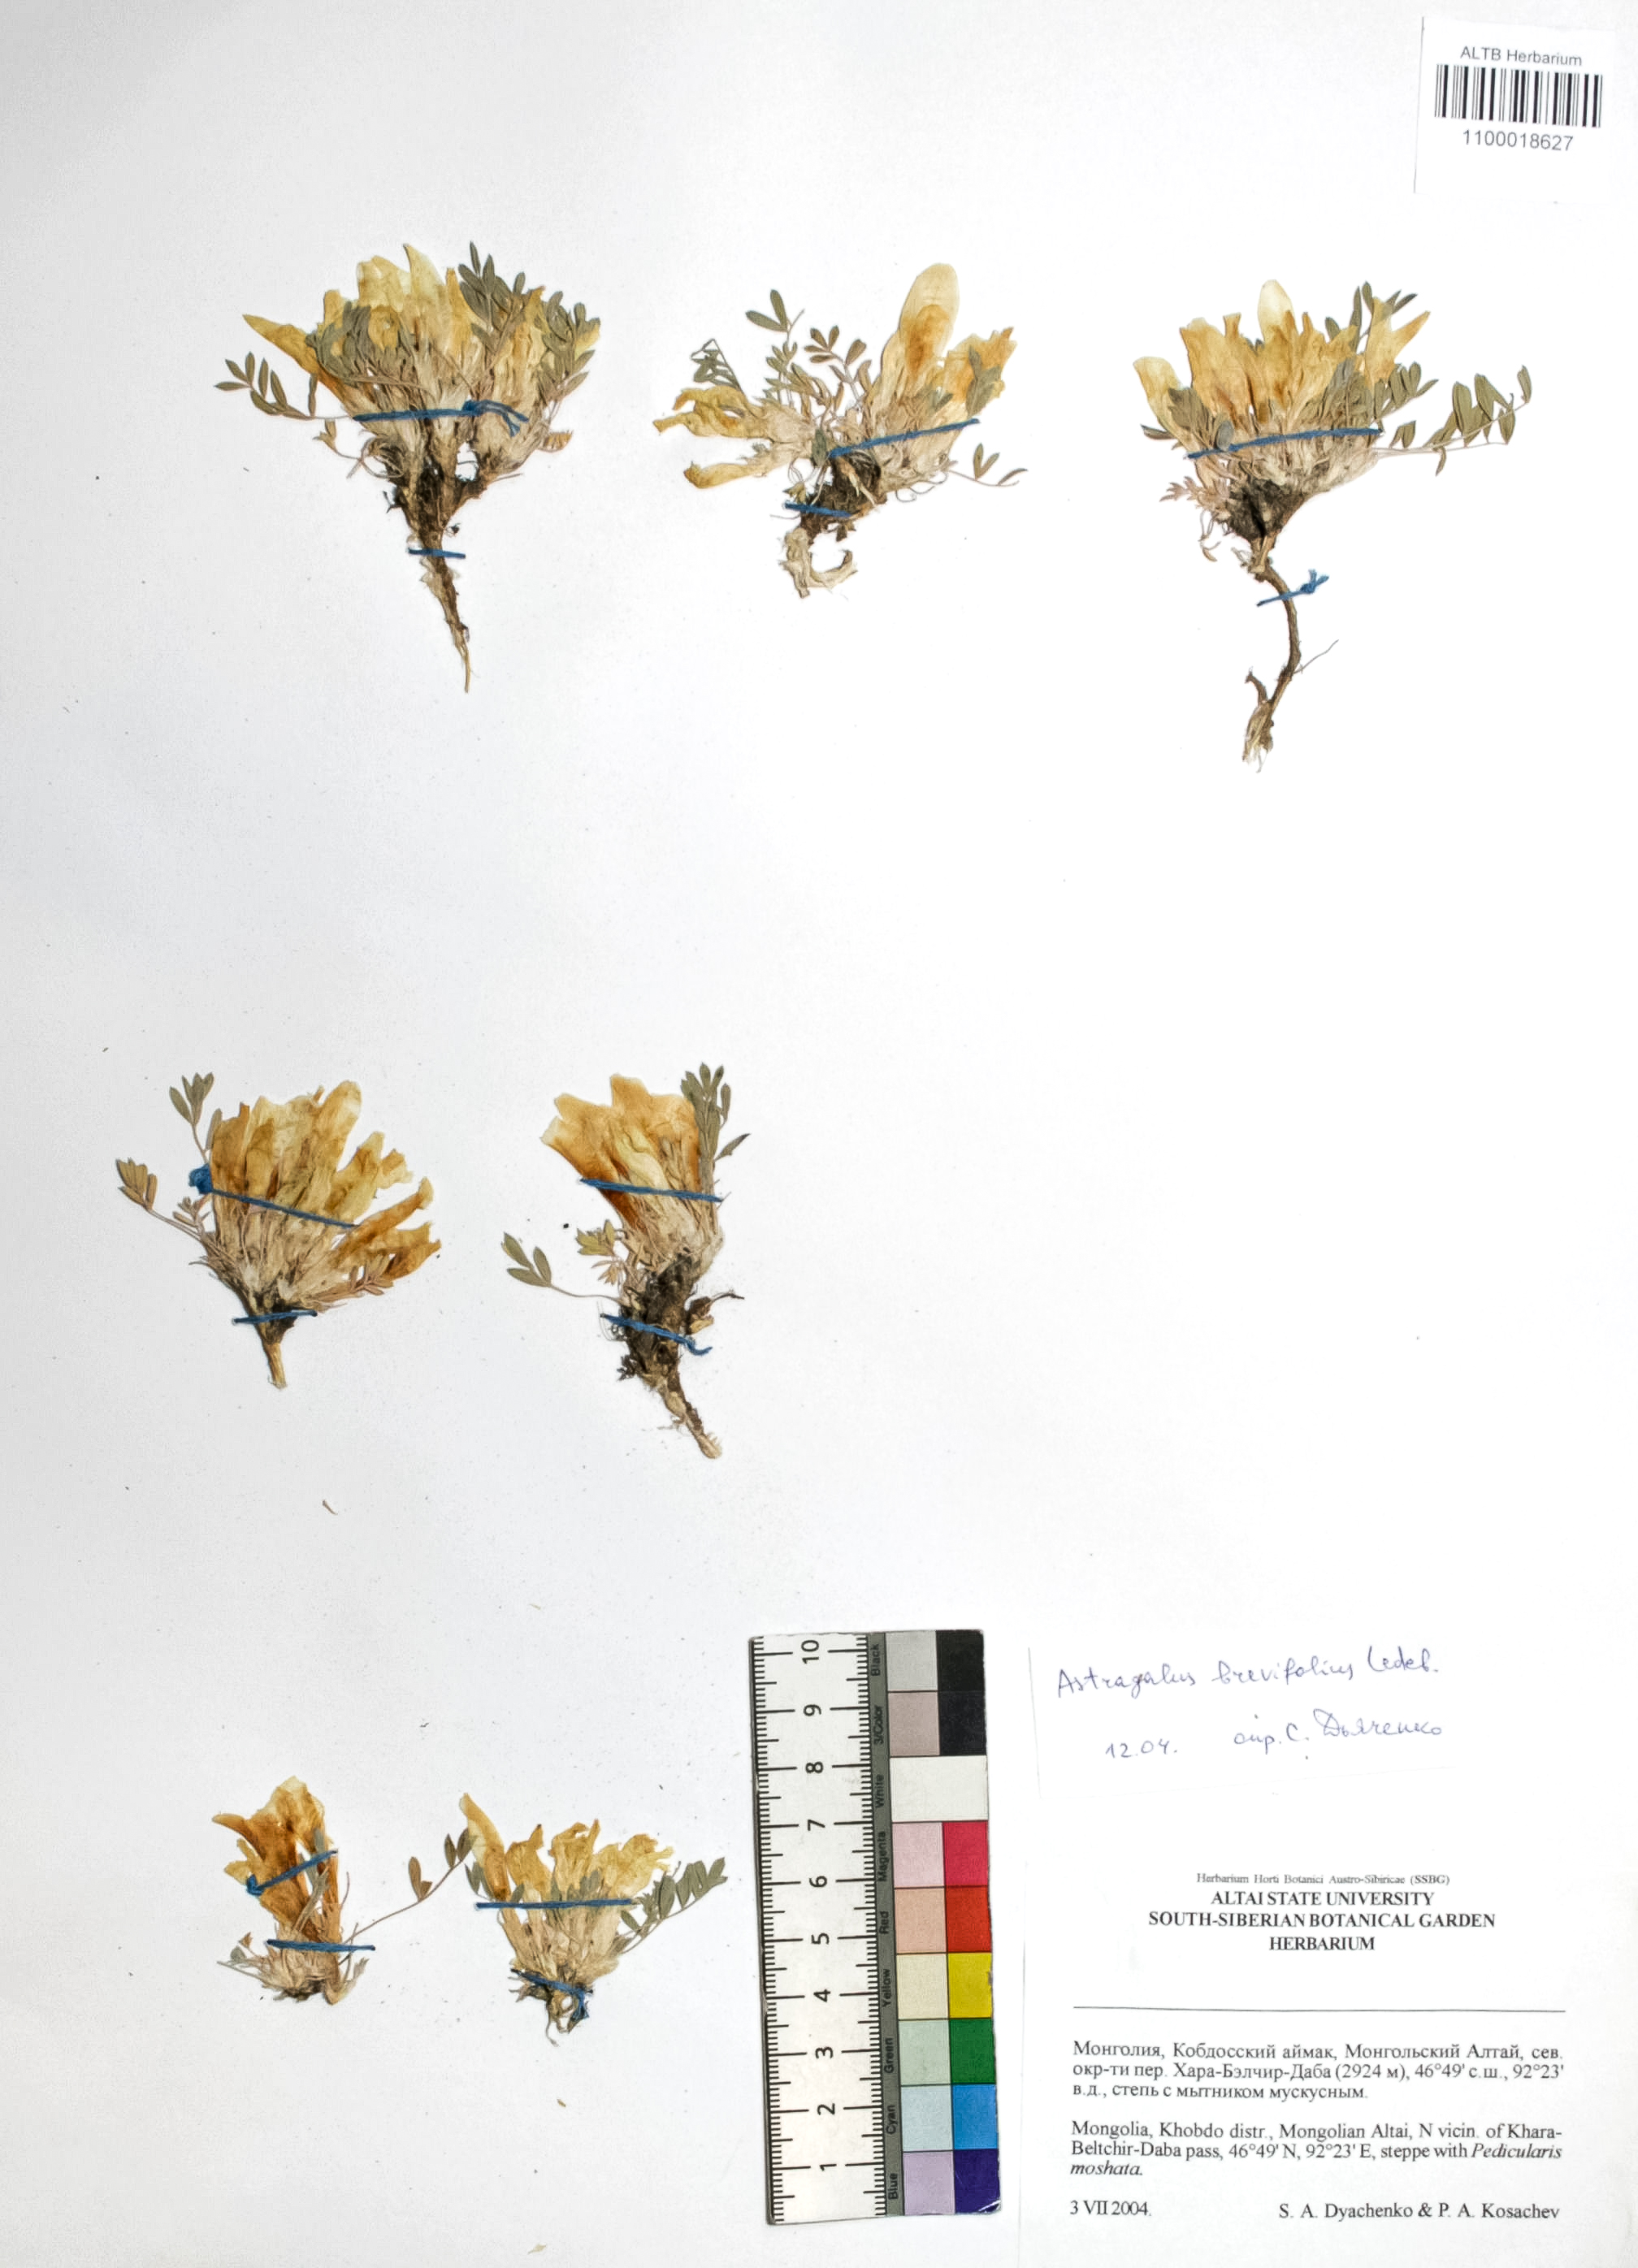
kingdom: Plantae
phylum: Tracheophyta
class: Magnoliopsida
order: Fabales
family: Fabaceae
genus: Astragalus
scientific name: Astragalus brevifolius
